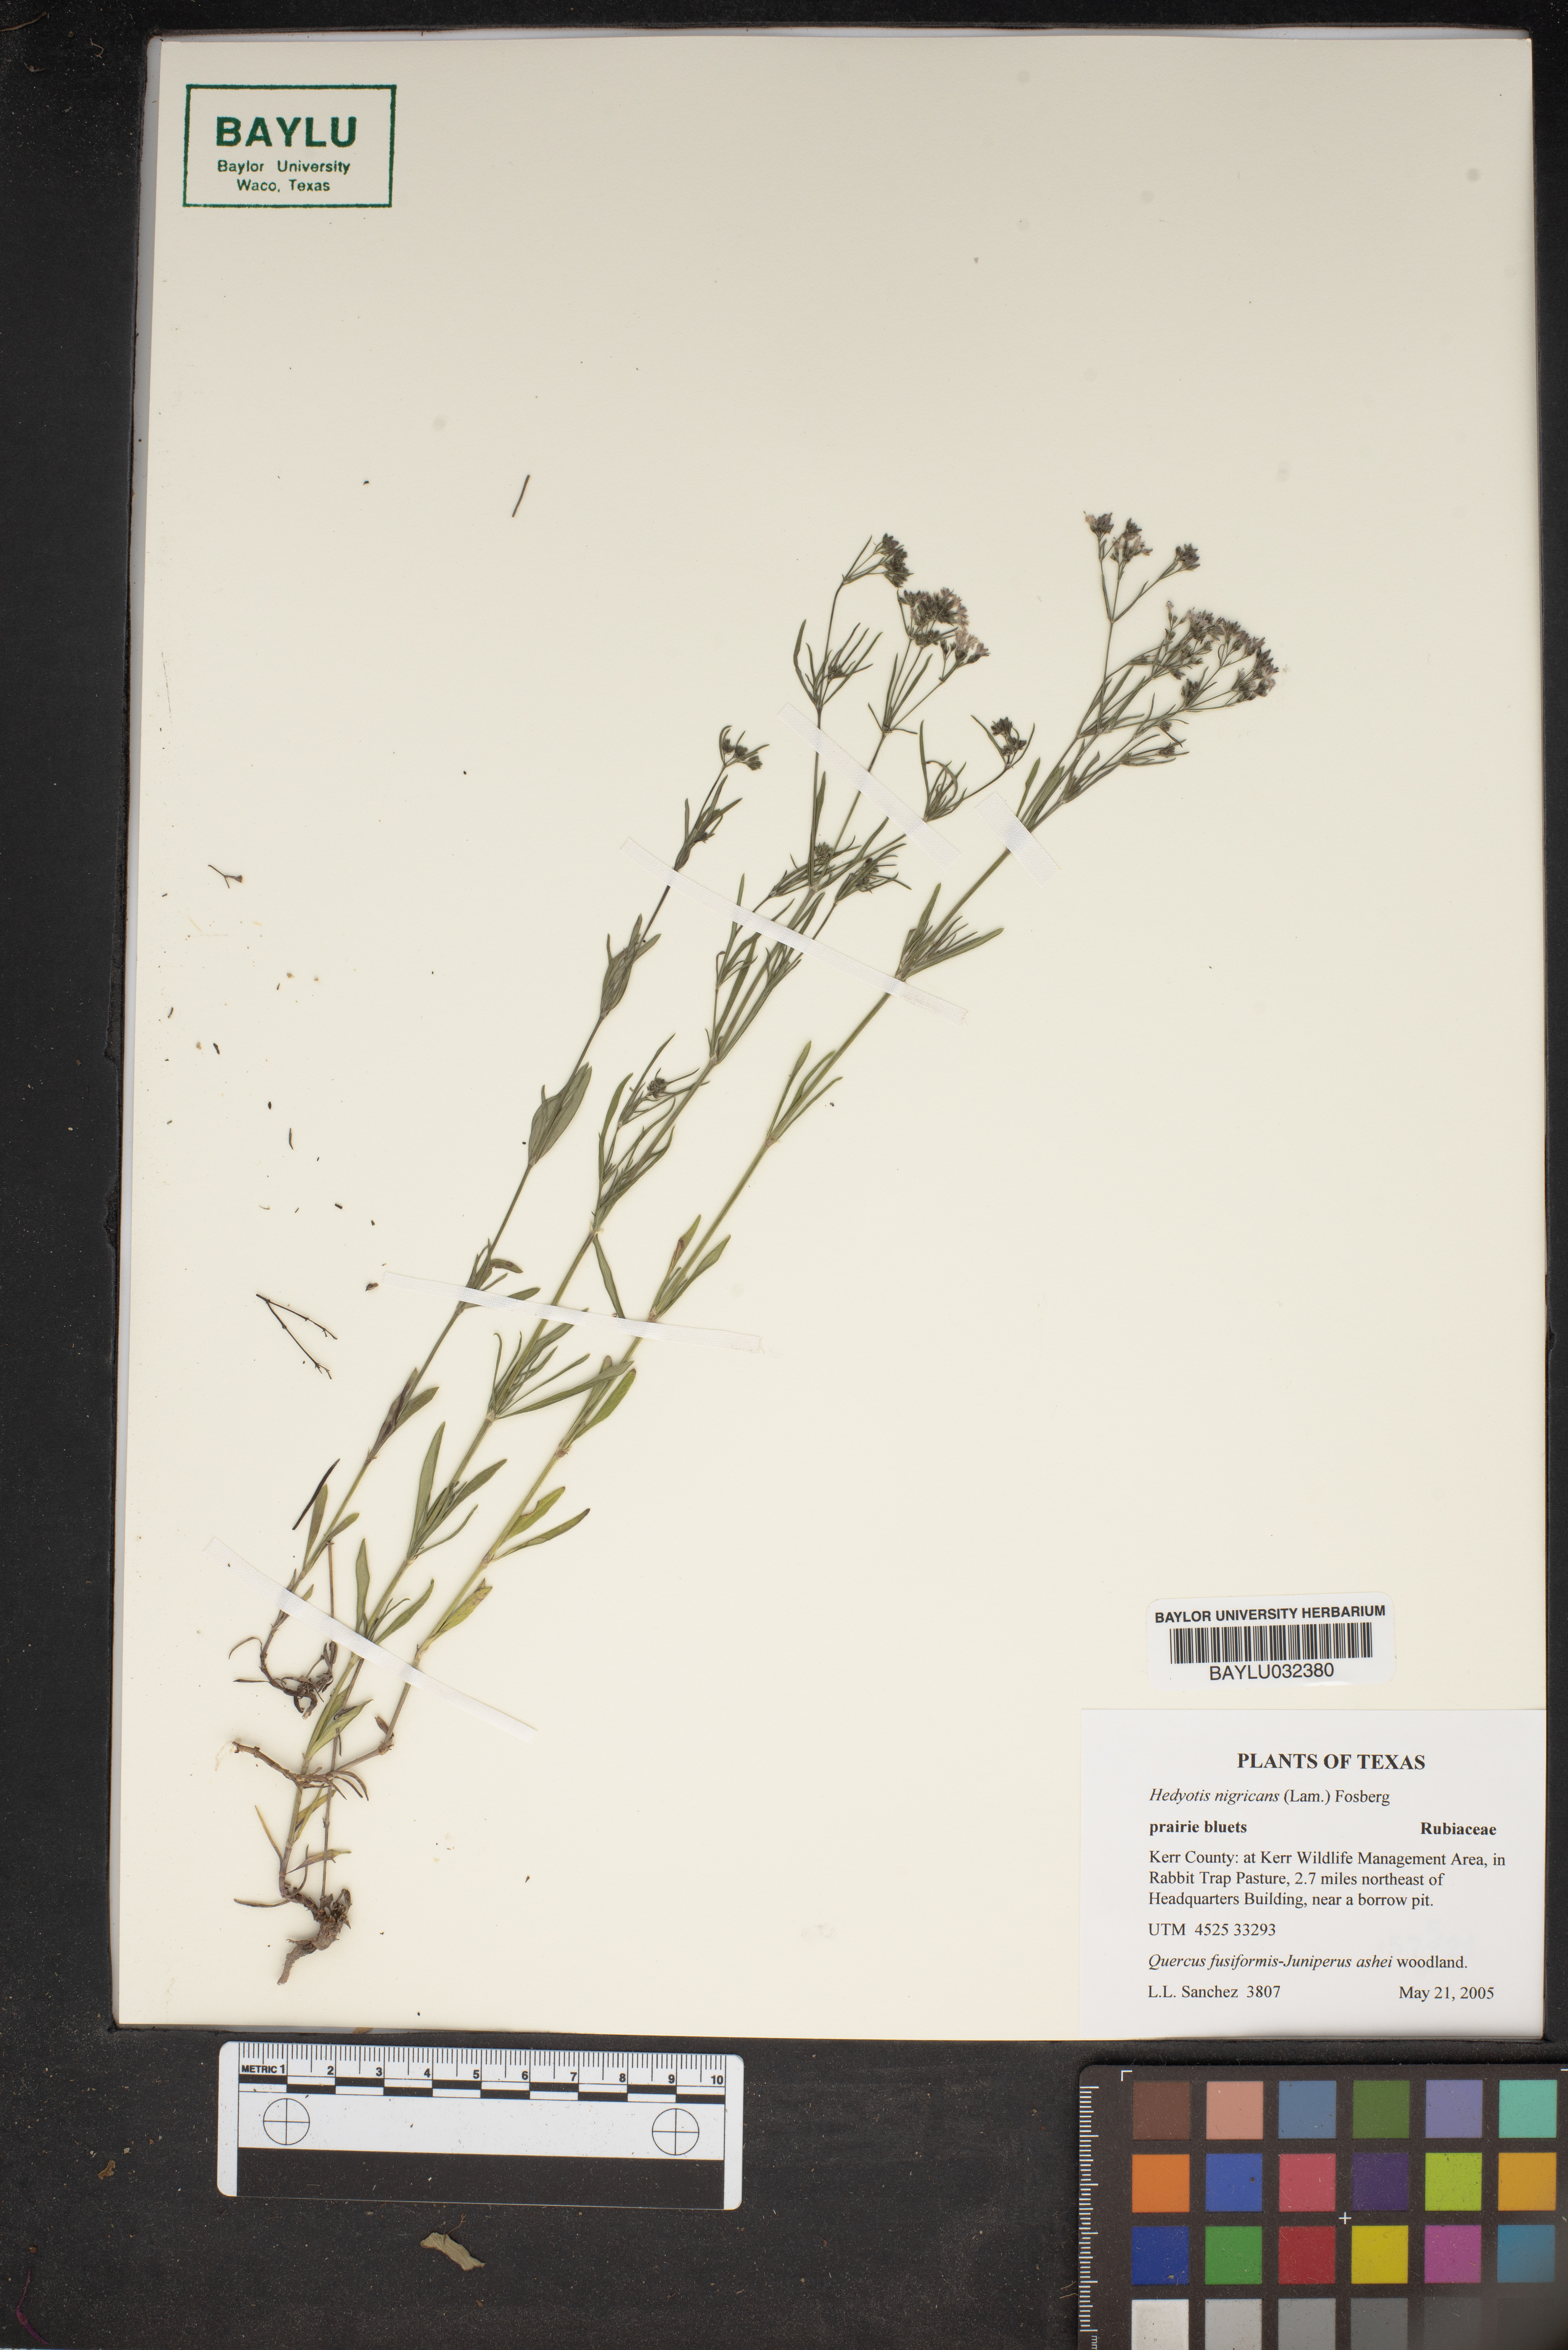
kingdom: Plantae
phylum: Tracheophyta
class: Magnoliopsida
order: Gentianales
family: Rubiaceae
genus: Stenaria
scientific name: Stenaria nigricans
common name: Diamondflowers
